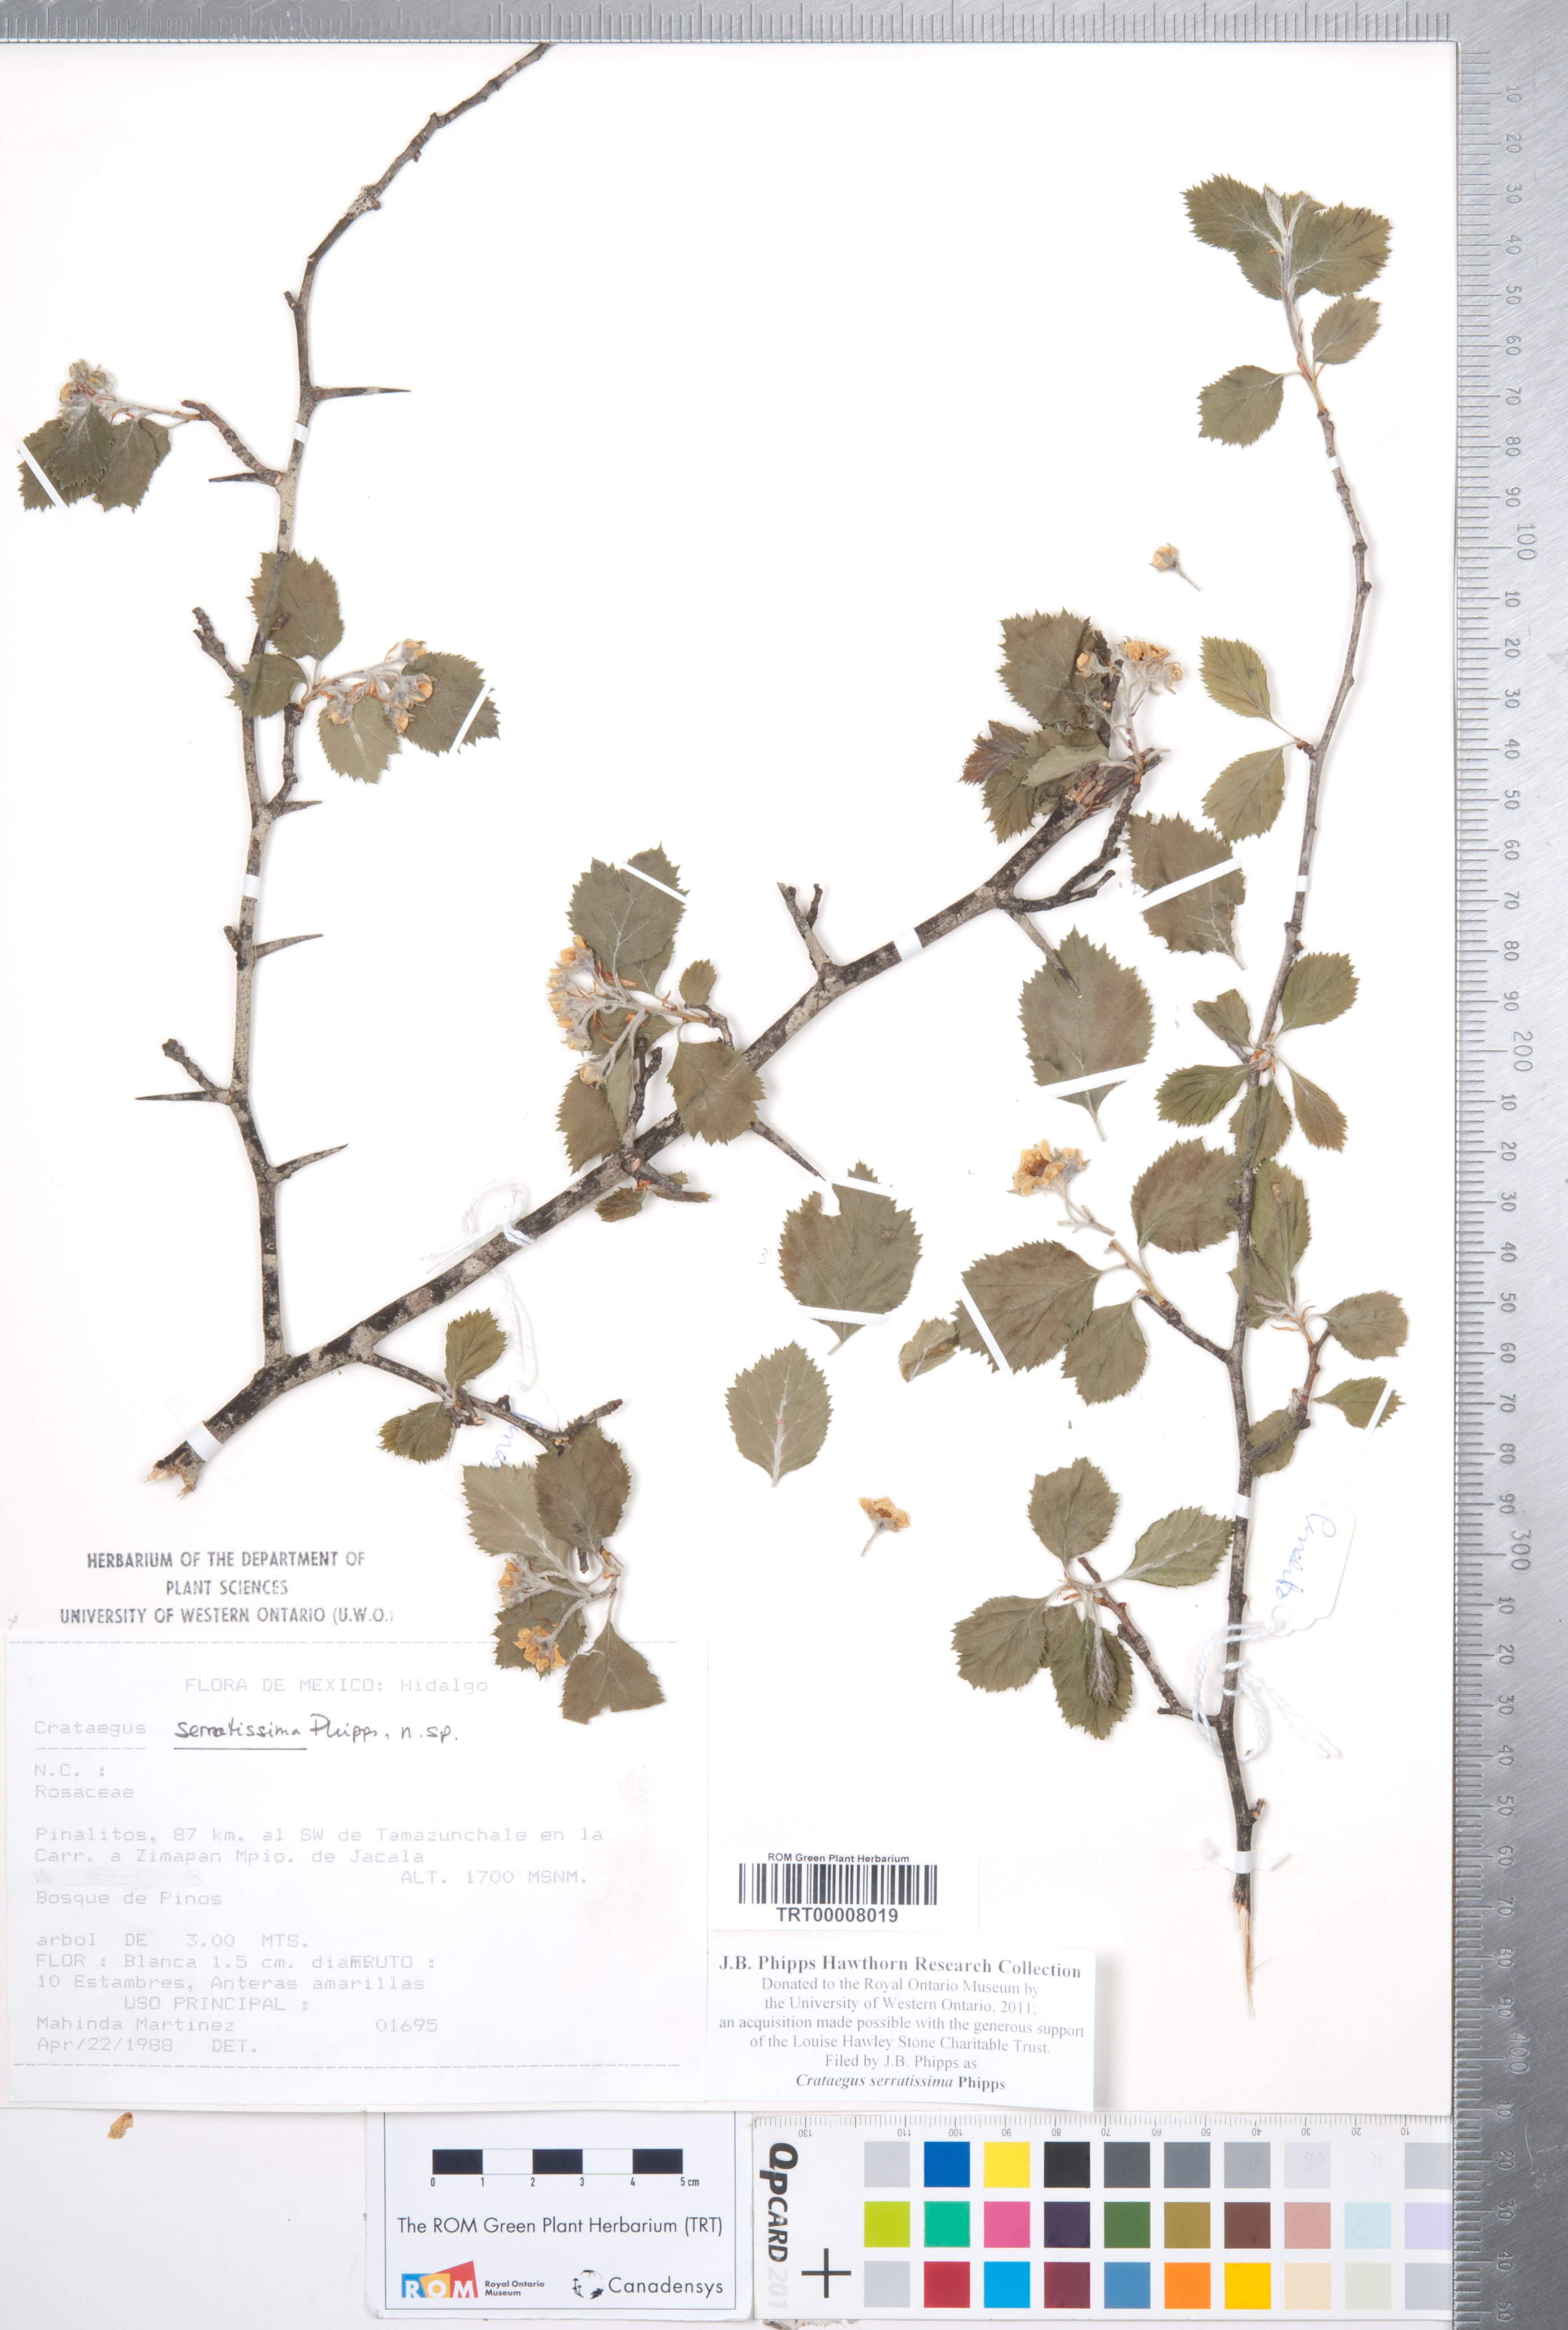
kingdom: Plantae
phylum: Tracheophyta
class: Magnoliopsida
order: Rosales
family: Rosaceae
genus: Crataegus
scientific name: Crataegus serratissima
